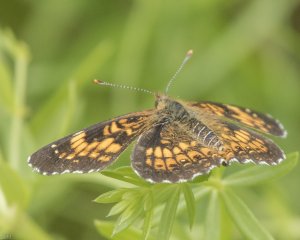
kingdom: Animalia
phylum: Arthropoda
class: Insecta
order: Lepidoptera
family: Nymphalidae
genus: Chlosyne
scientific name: Chlosyne harrisii
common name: Harris's Checkerspot
